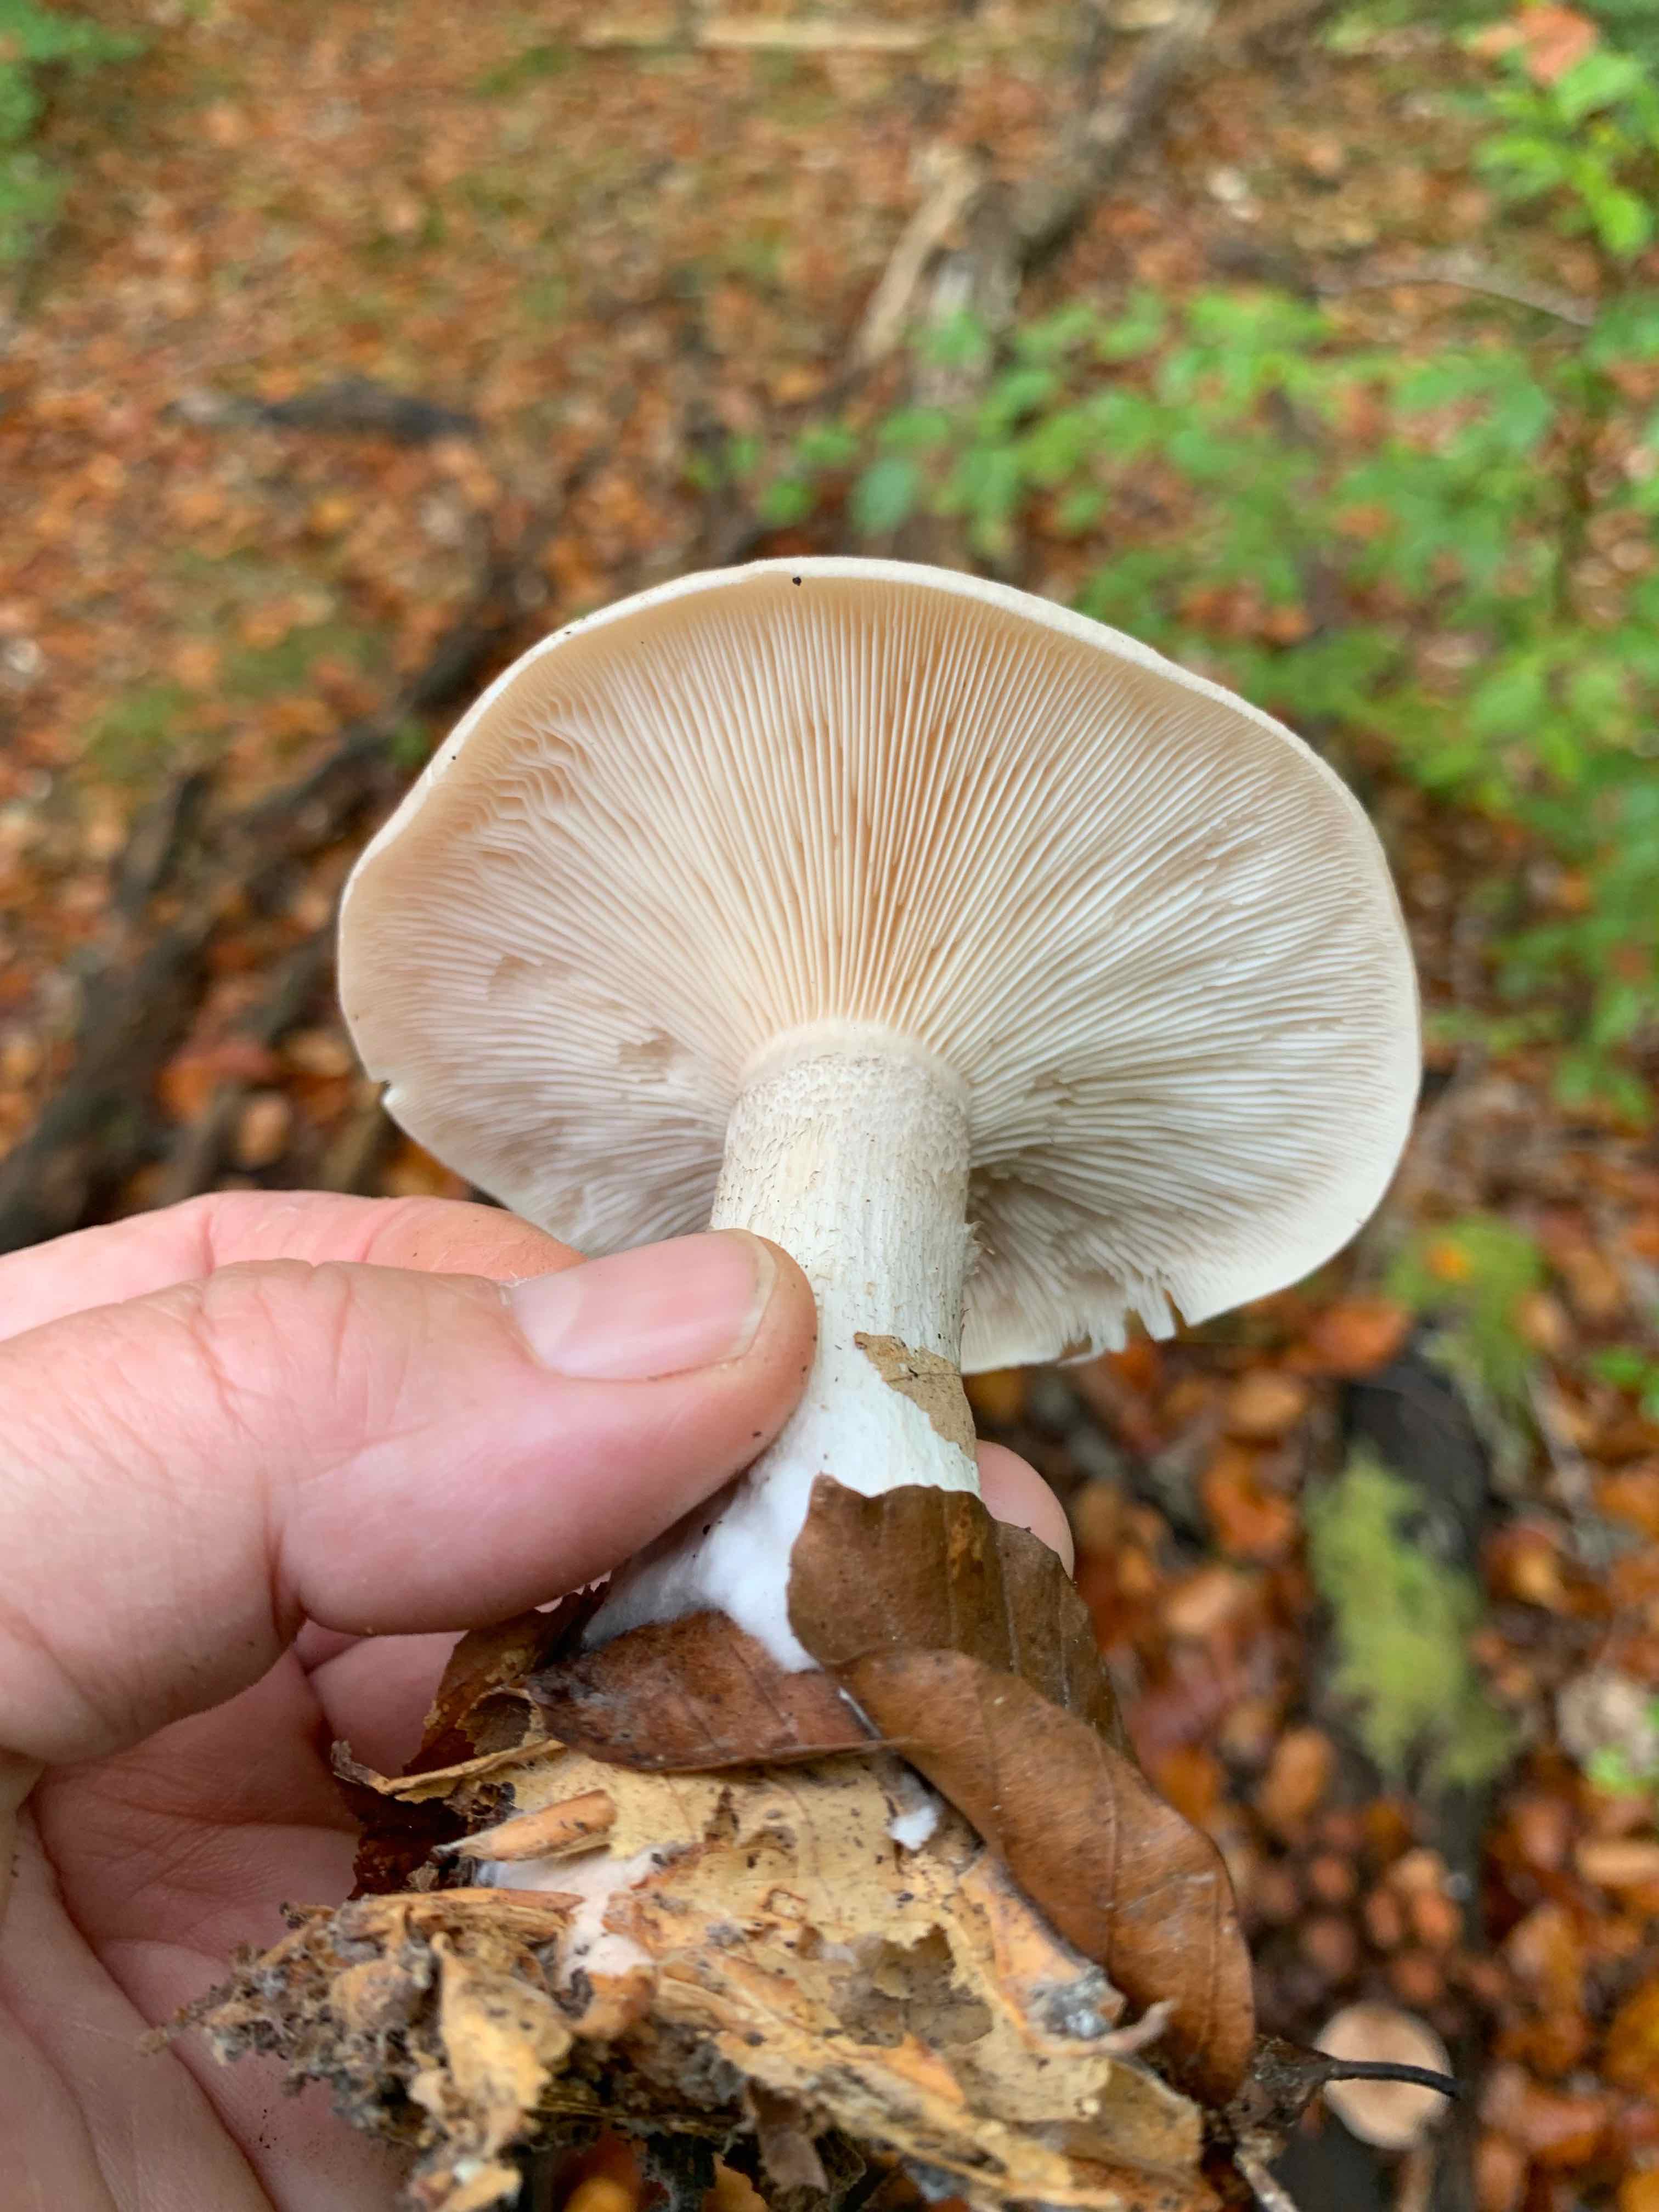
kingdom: Fungi
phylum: Basidiomycota
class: Agaricomycetes
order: Agaricales
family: Tricholomataceae
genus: Clitocybe
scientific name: Clitocybe nebularis
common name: tåge-tragthat
